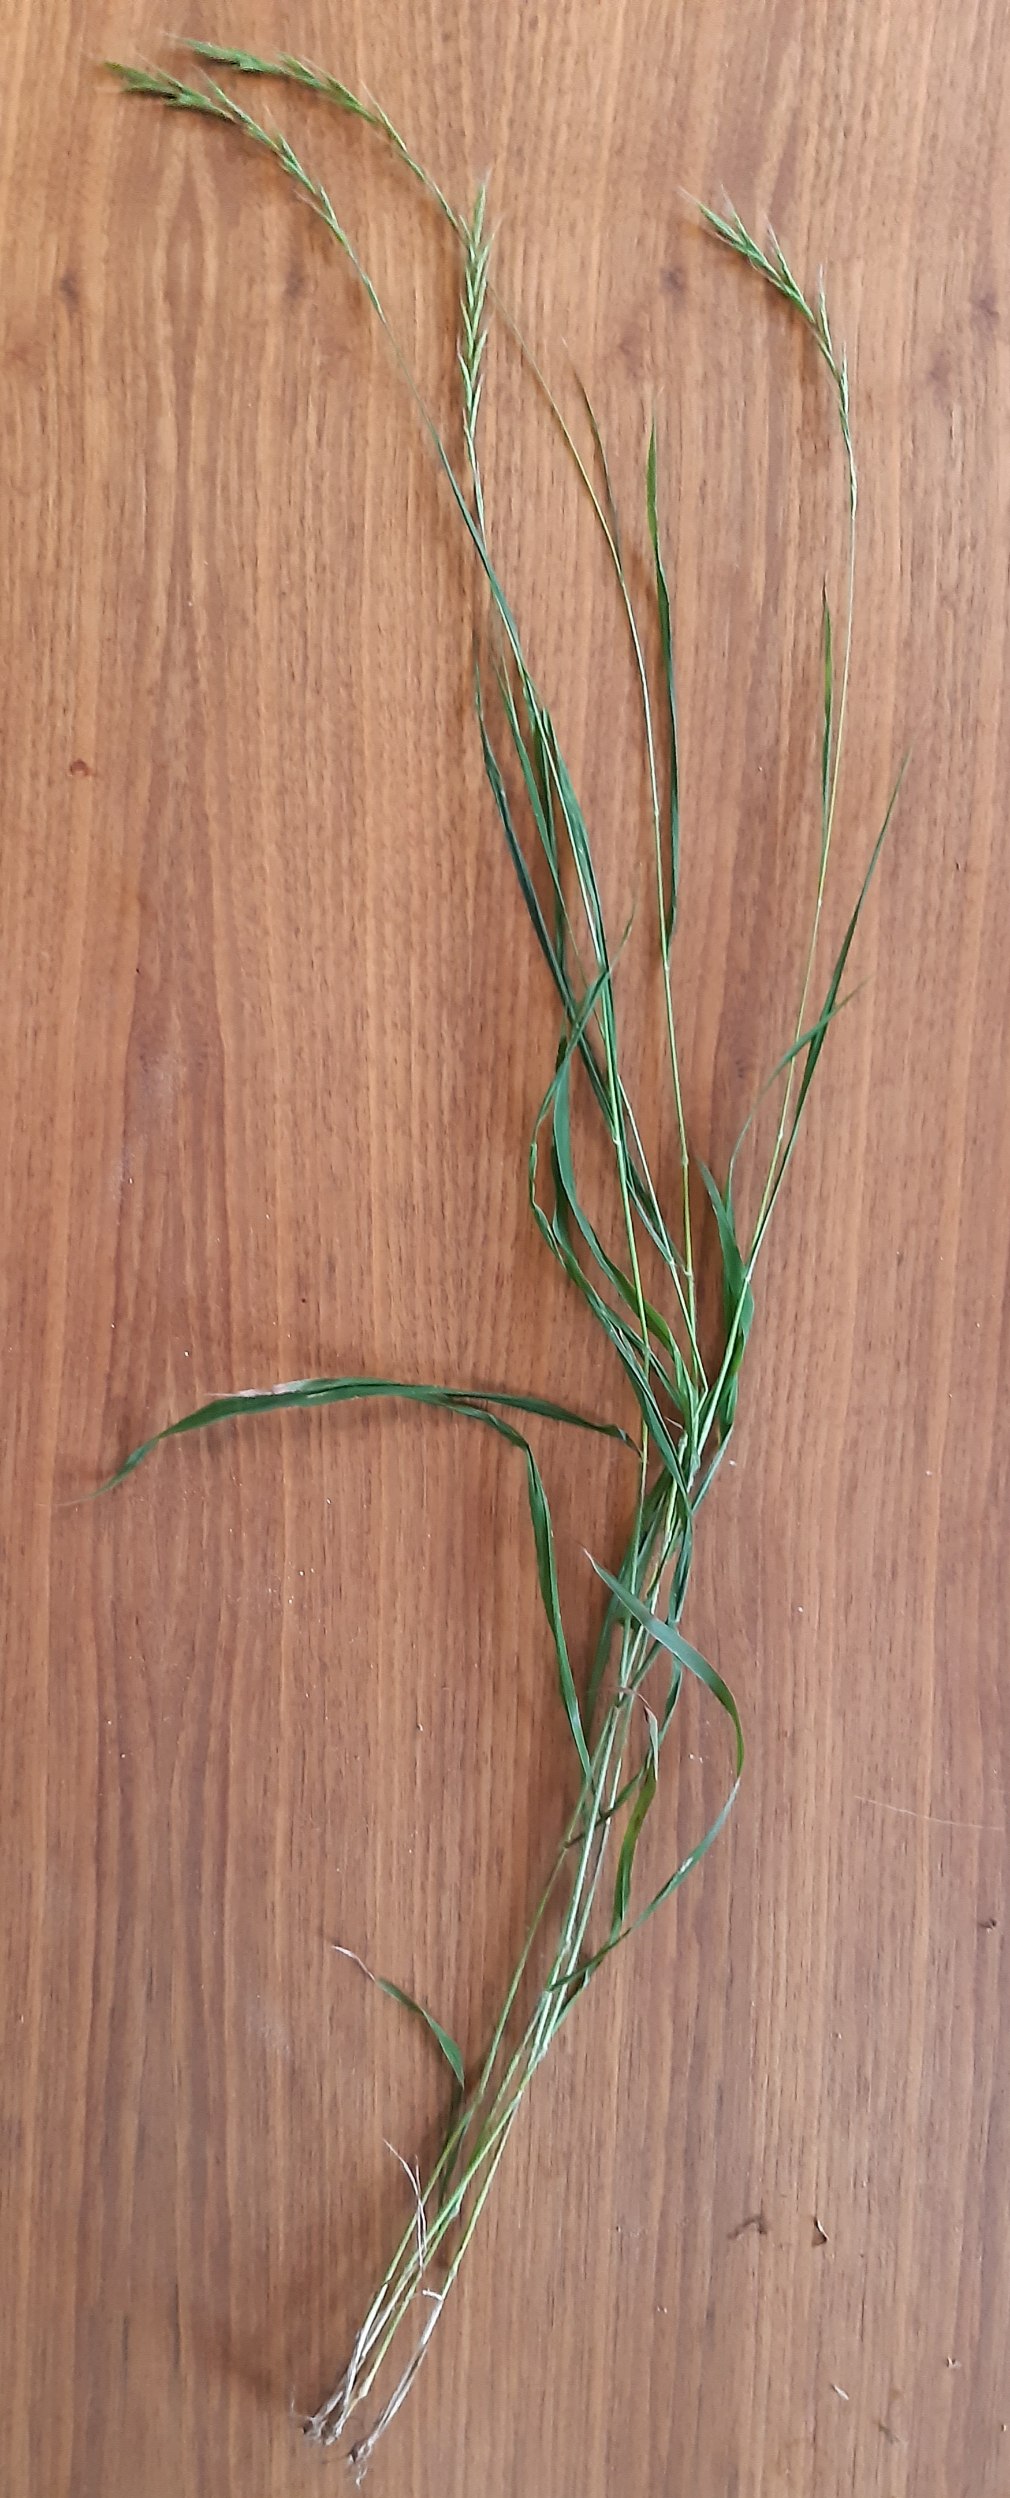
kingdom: Plantae
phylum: Tracheophyta
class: Liliopsida
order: Poales
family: Poaceae
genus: Brachypodium
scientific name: Brachypodium sylvaticum
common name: Skov-stilkaks
